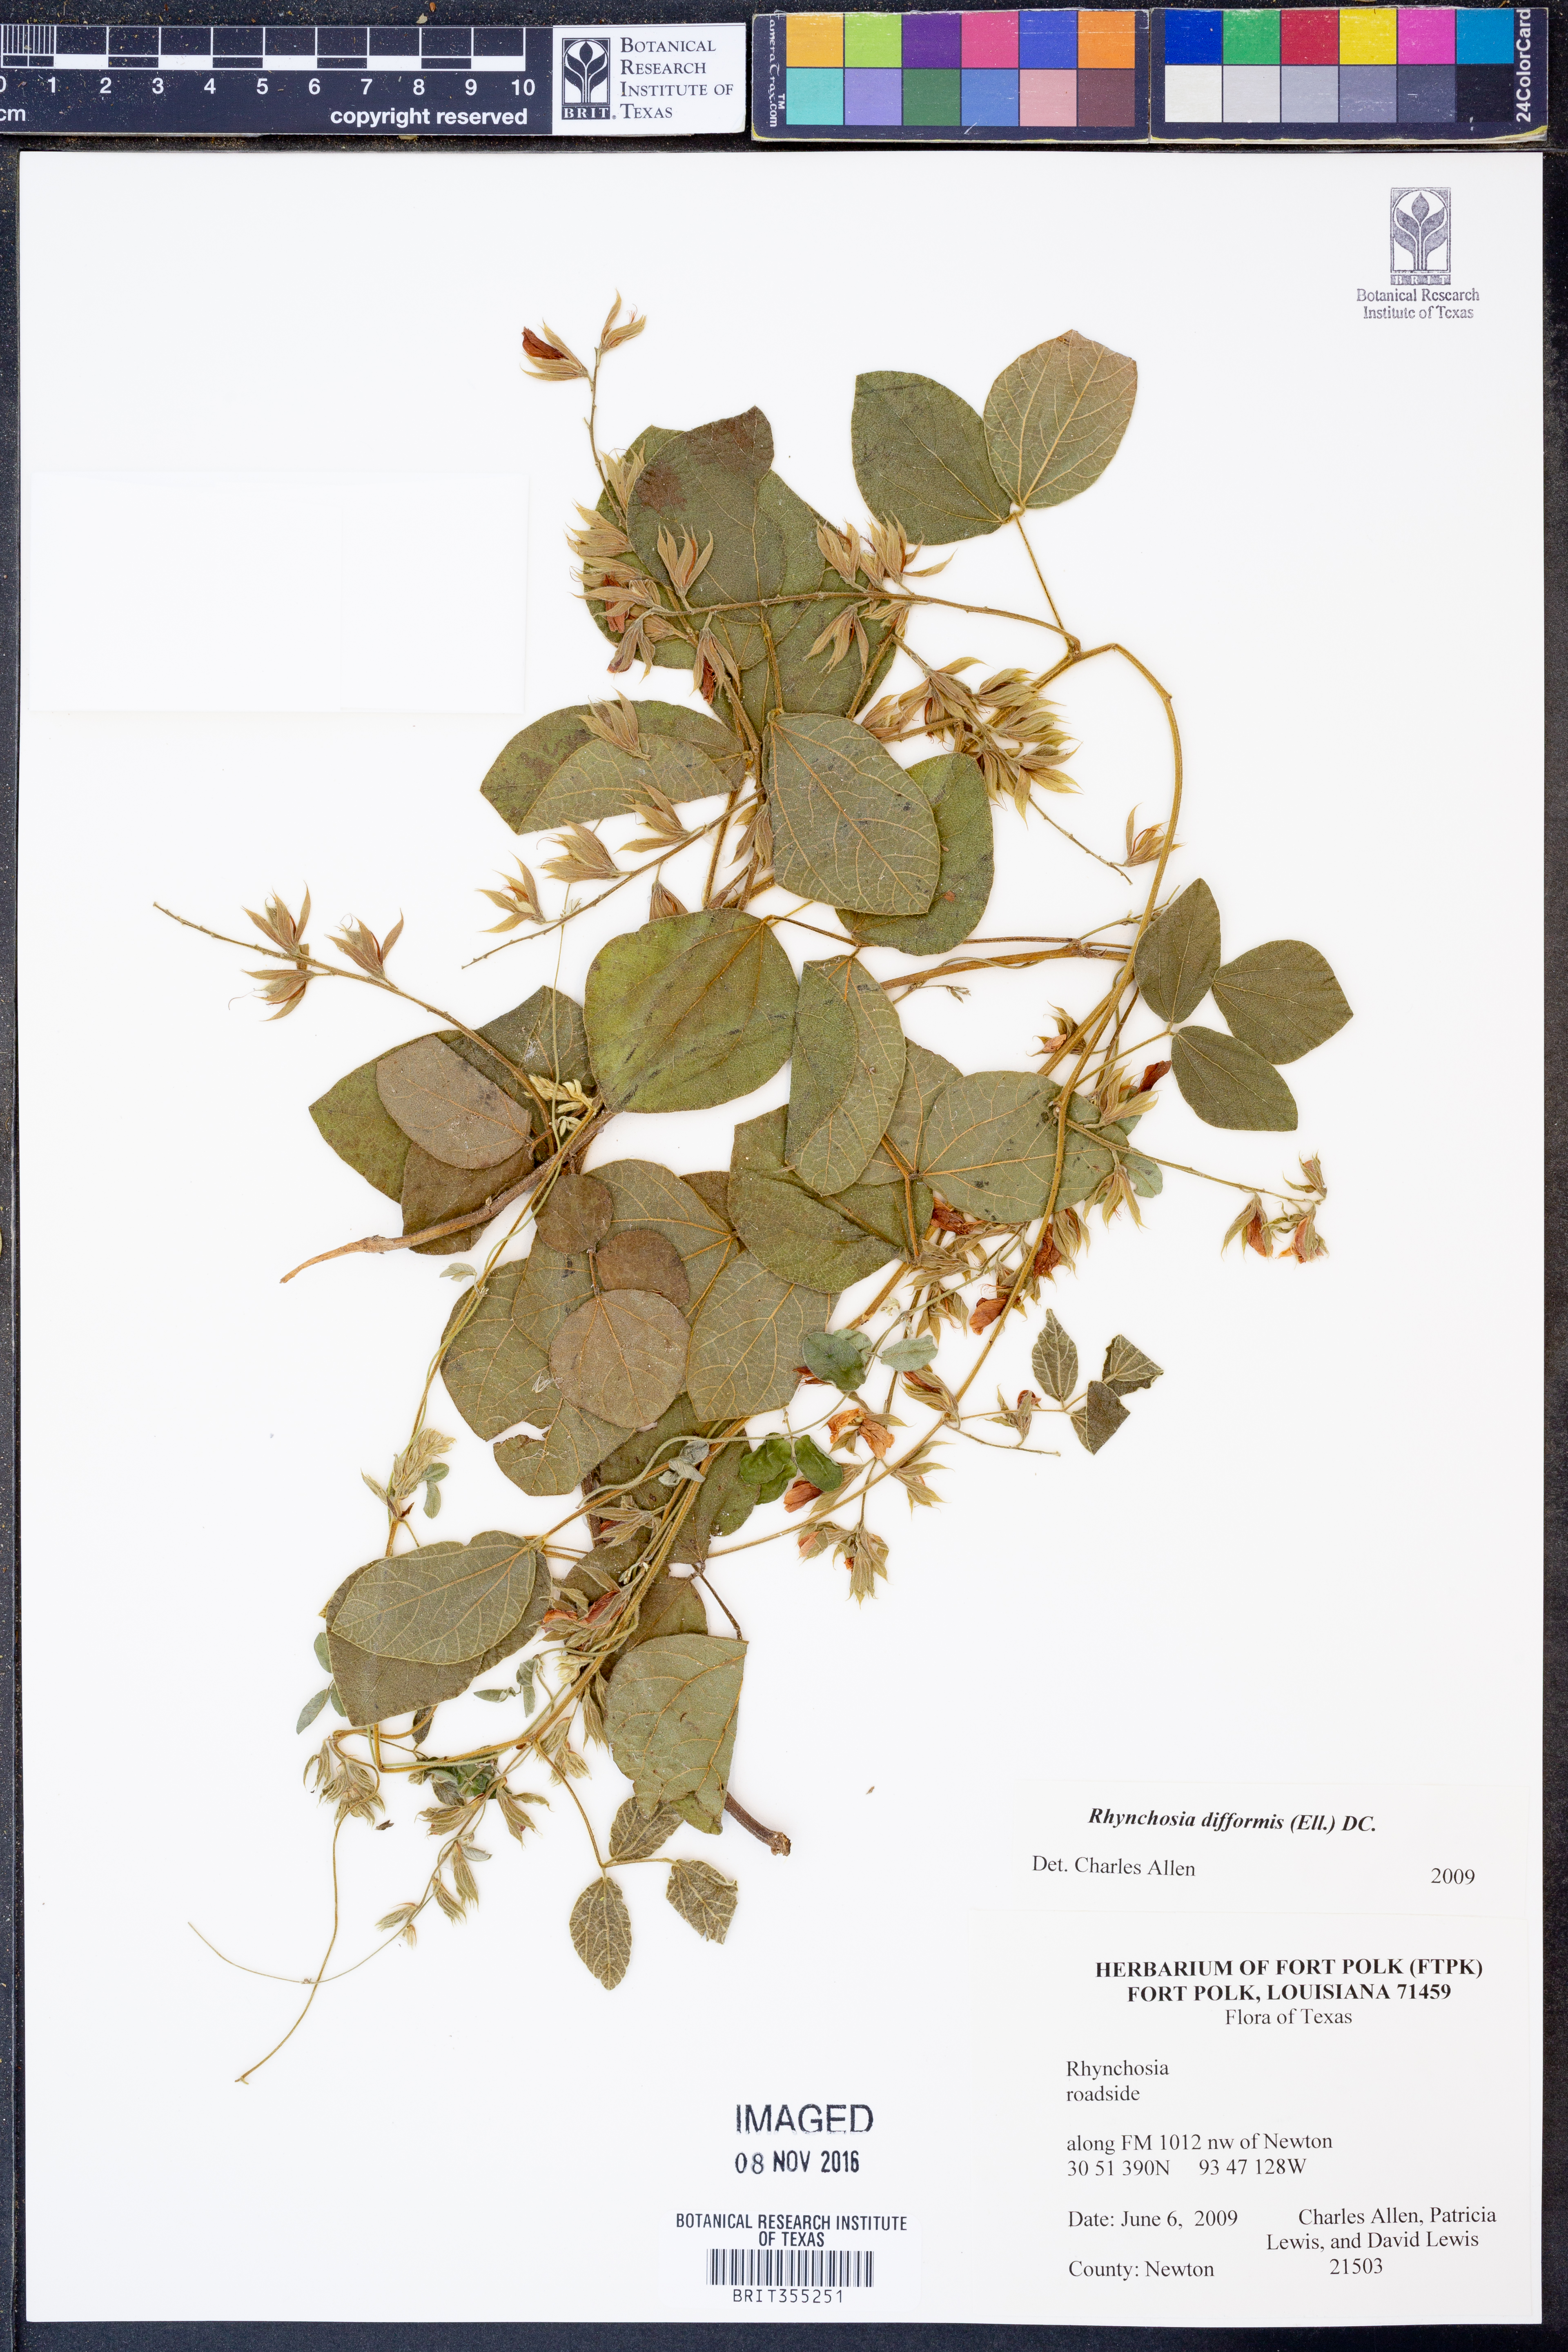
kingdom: Plantae
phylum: Tracheophyta
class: Magnoliopsida
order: Fabales
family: Fabaceae
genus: Rhynchosia
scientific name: Rhynchosia difformis
